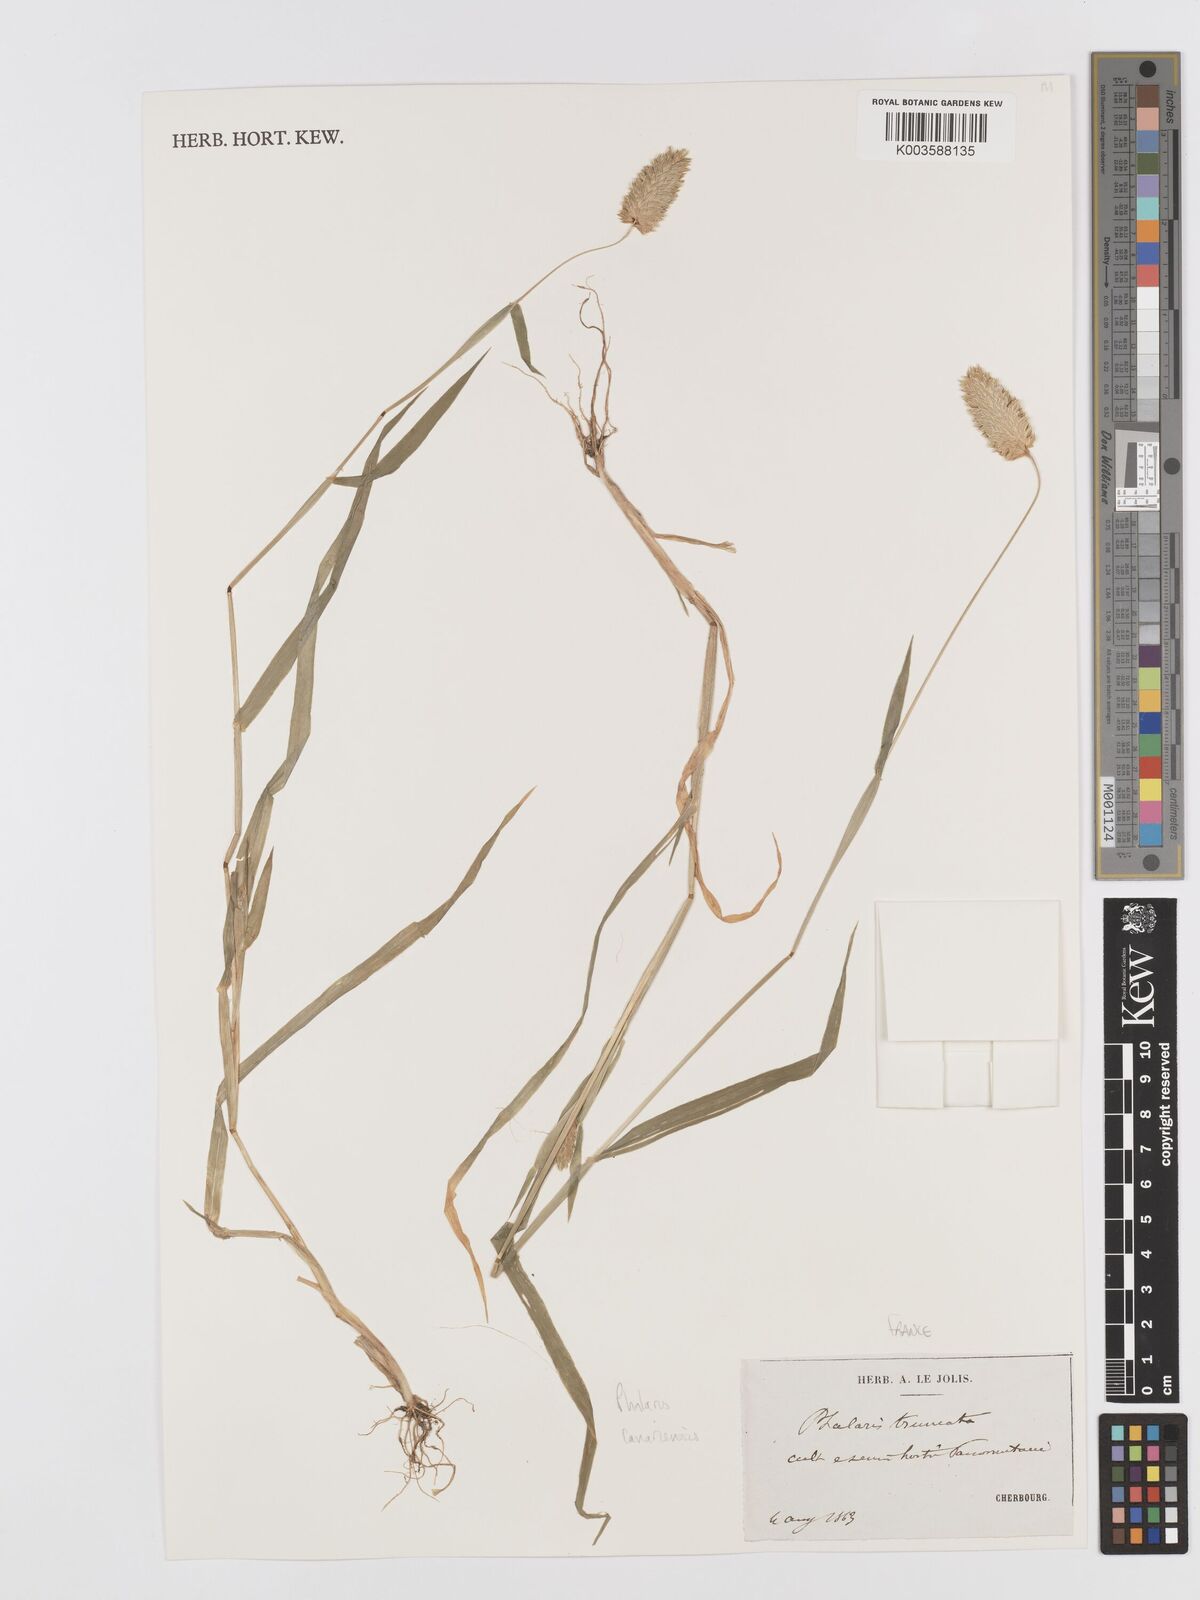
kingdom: Plantae
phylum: Tracheophyta
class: Liliopsida
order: Poales
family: Poaceae
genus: Phalaris
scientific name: Phalaris canariensis
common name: Annual canarygrass
